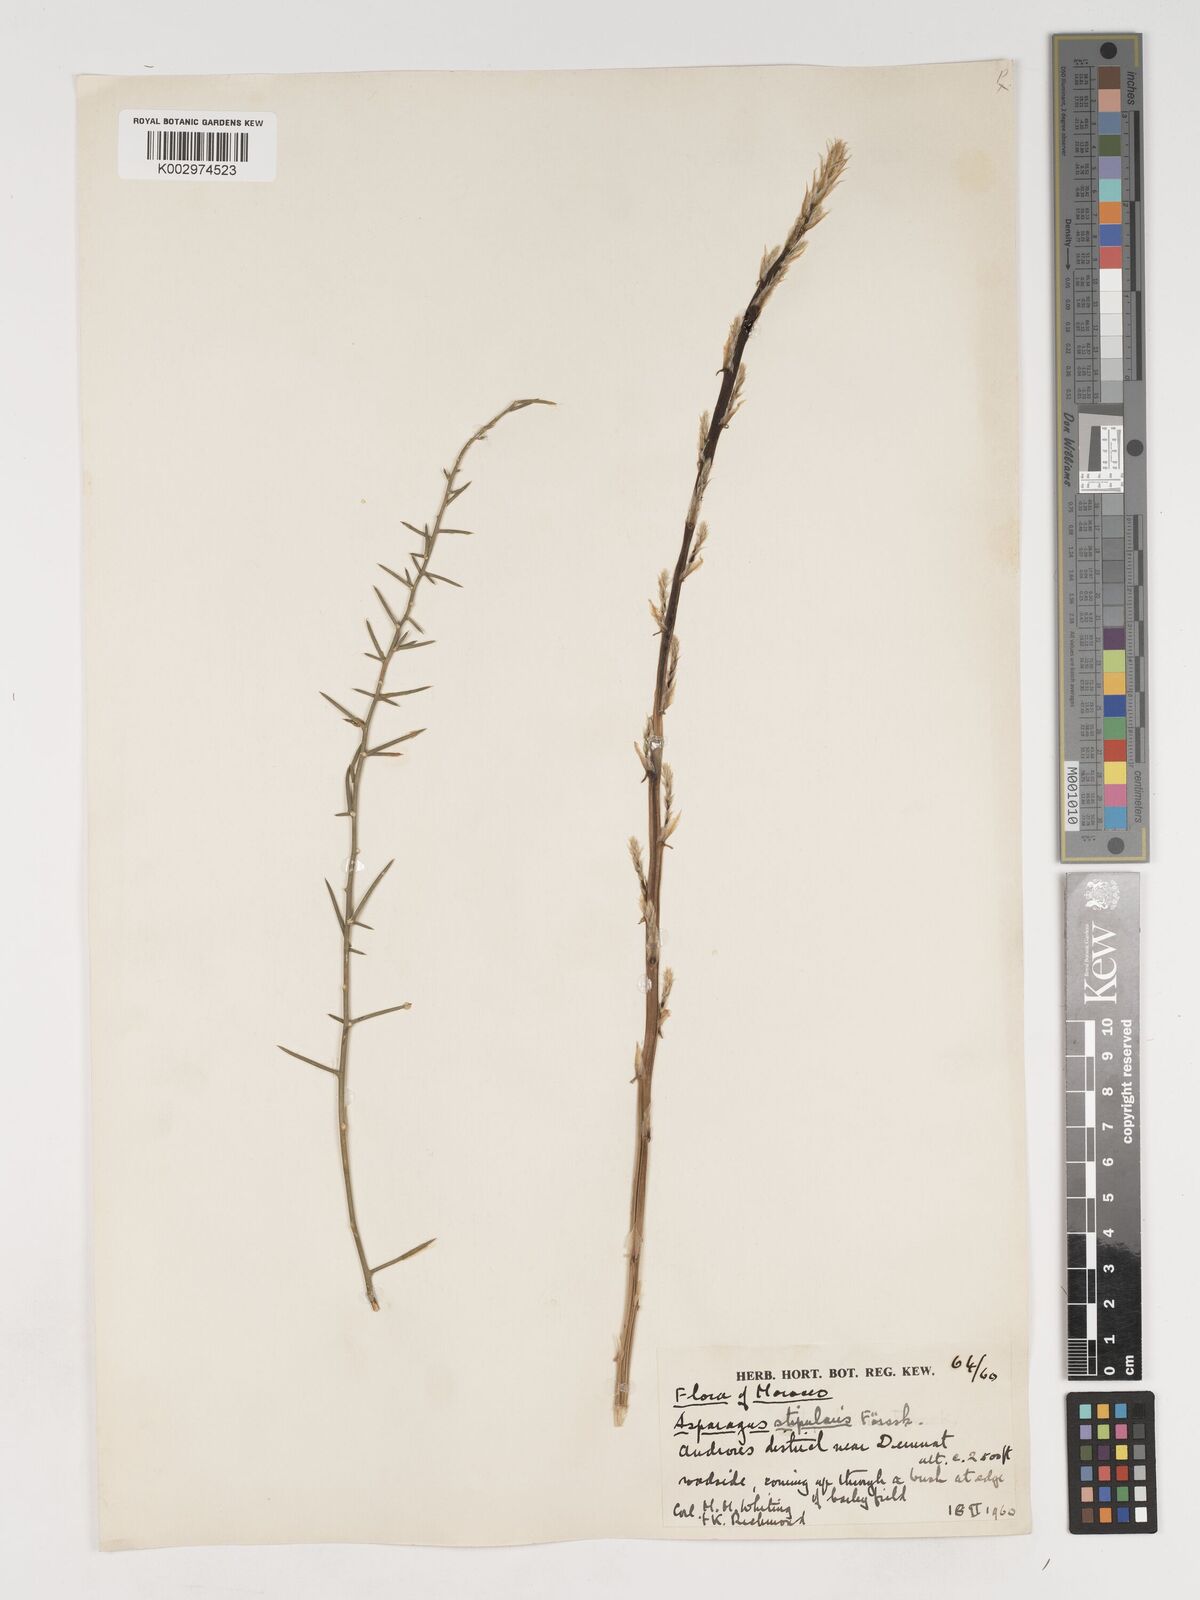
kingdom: Plantae
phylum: Tracheophyta
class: Liliopsida
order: Asparagales
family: Asparagaceae
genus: Asparagus
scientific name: Asparagus horridus
